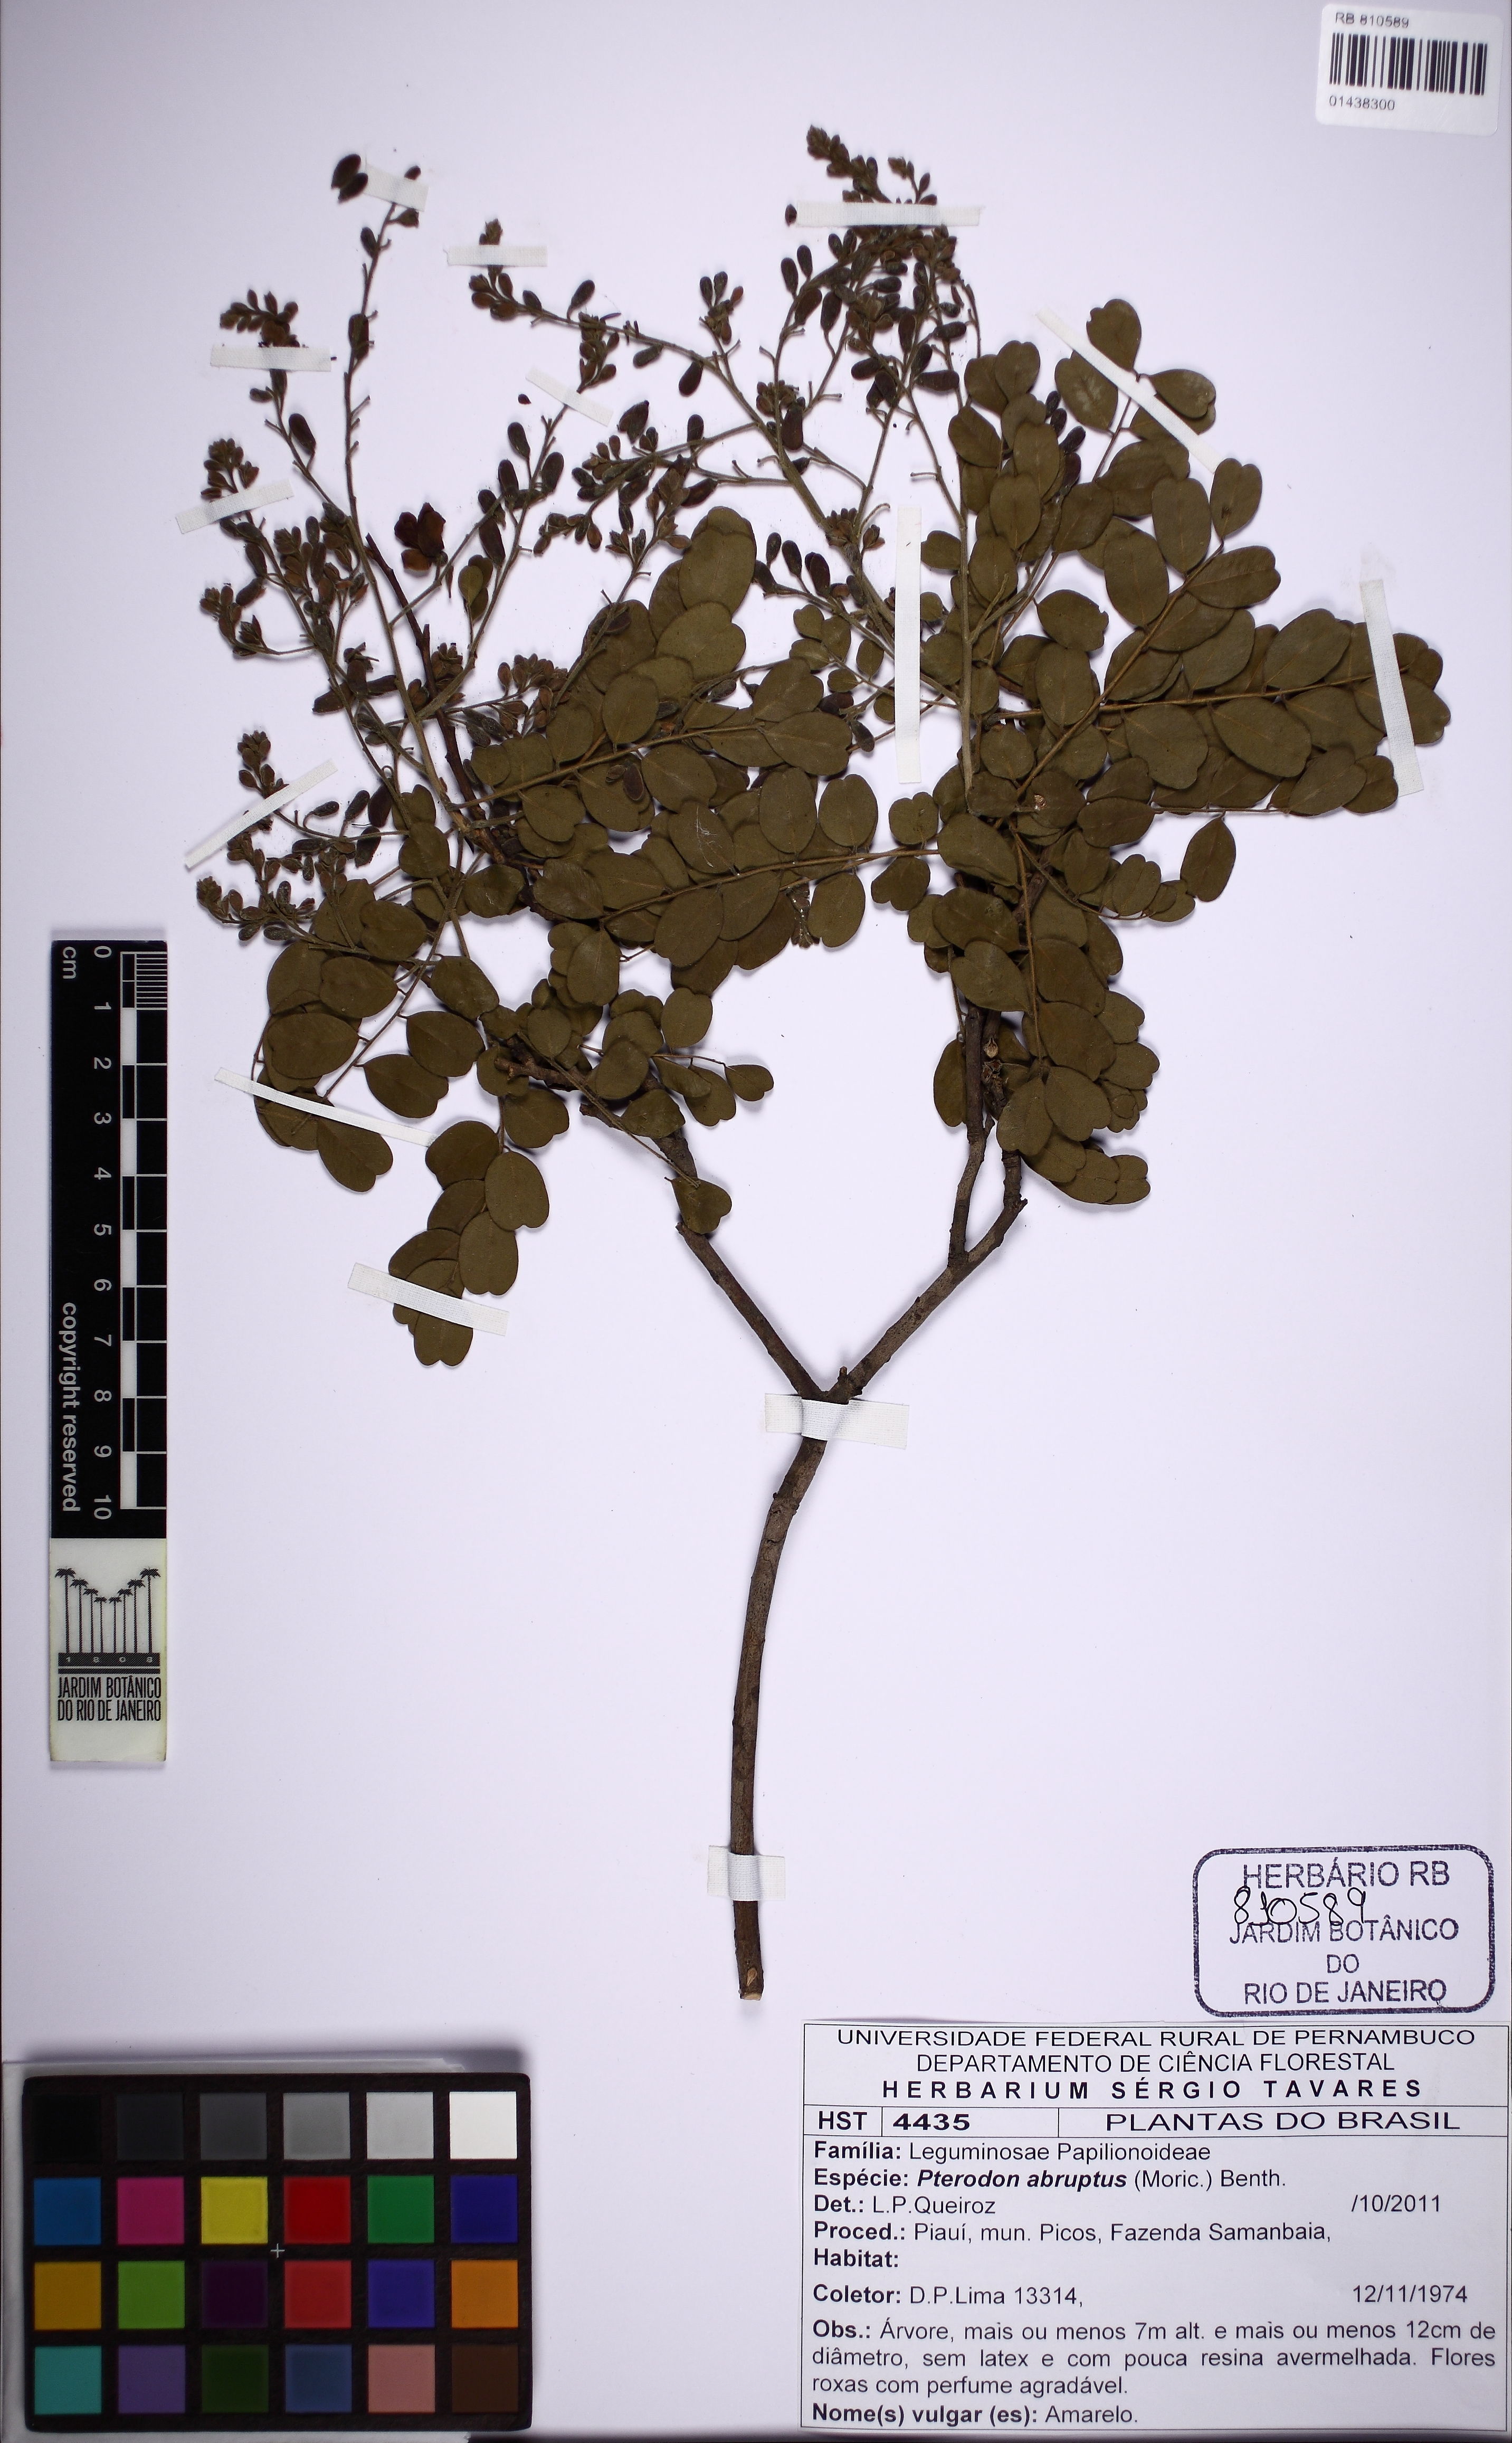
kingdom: Plantae
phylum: Tracheophyta
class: Magnoliopsida
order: Fabales
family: Fabaceae
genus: Pterodon
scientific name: Pterodon abruptus
